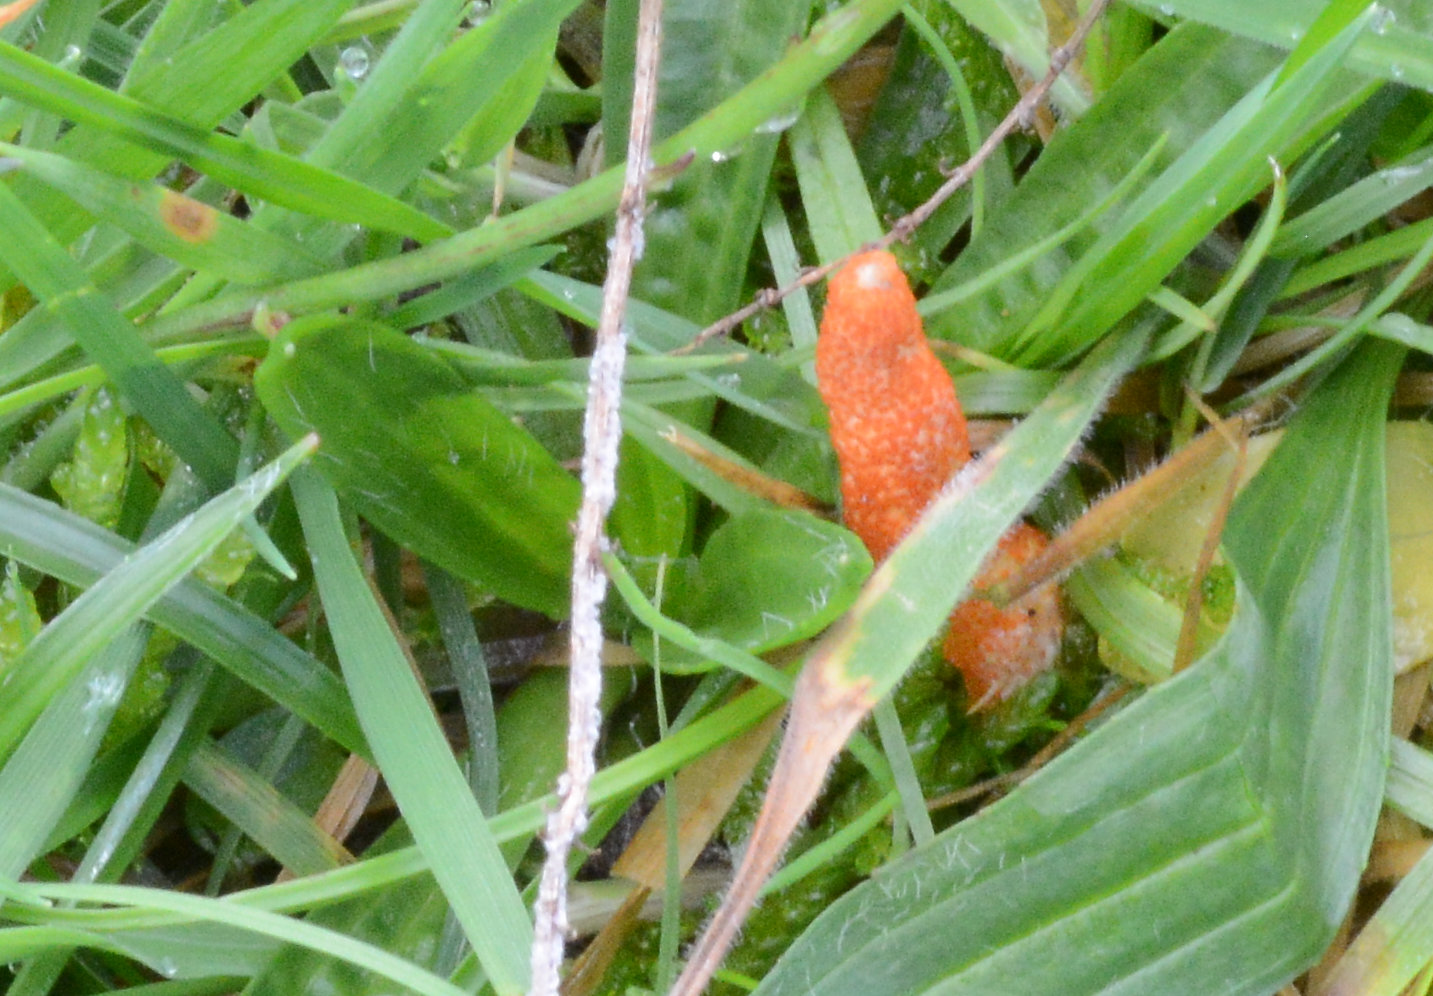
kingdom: Fungi
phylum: Ascomycota
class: Sordariomycetes
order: Hypocreales
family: Cordycipitaceae
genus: Cordyceps
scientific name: Cordyceps militaris
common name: puppe-snyltekølle
